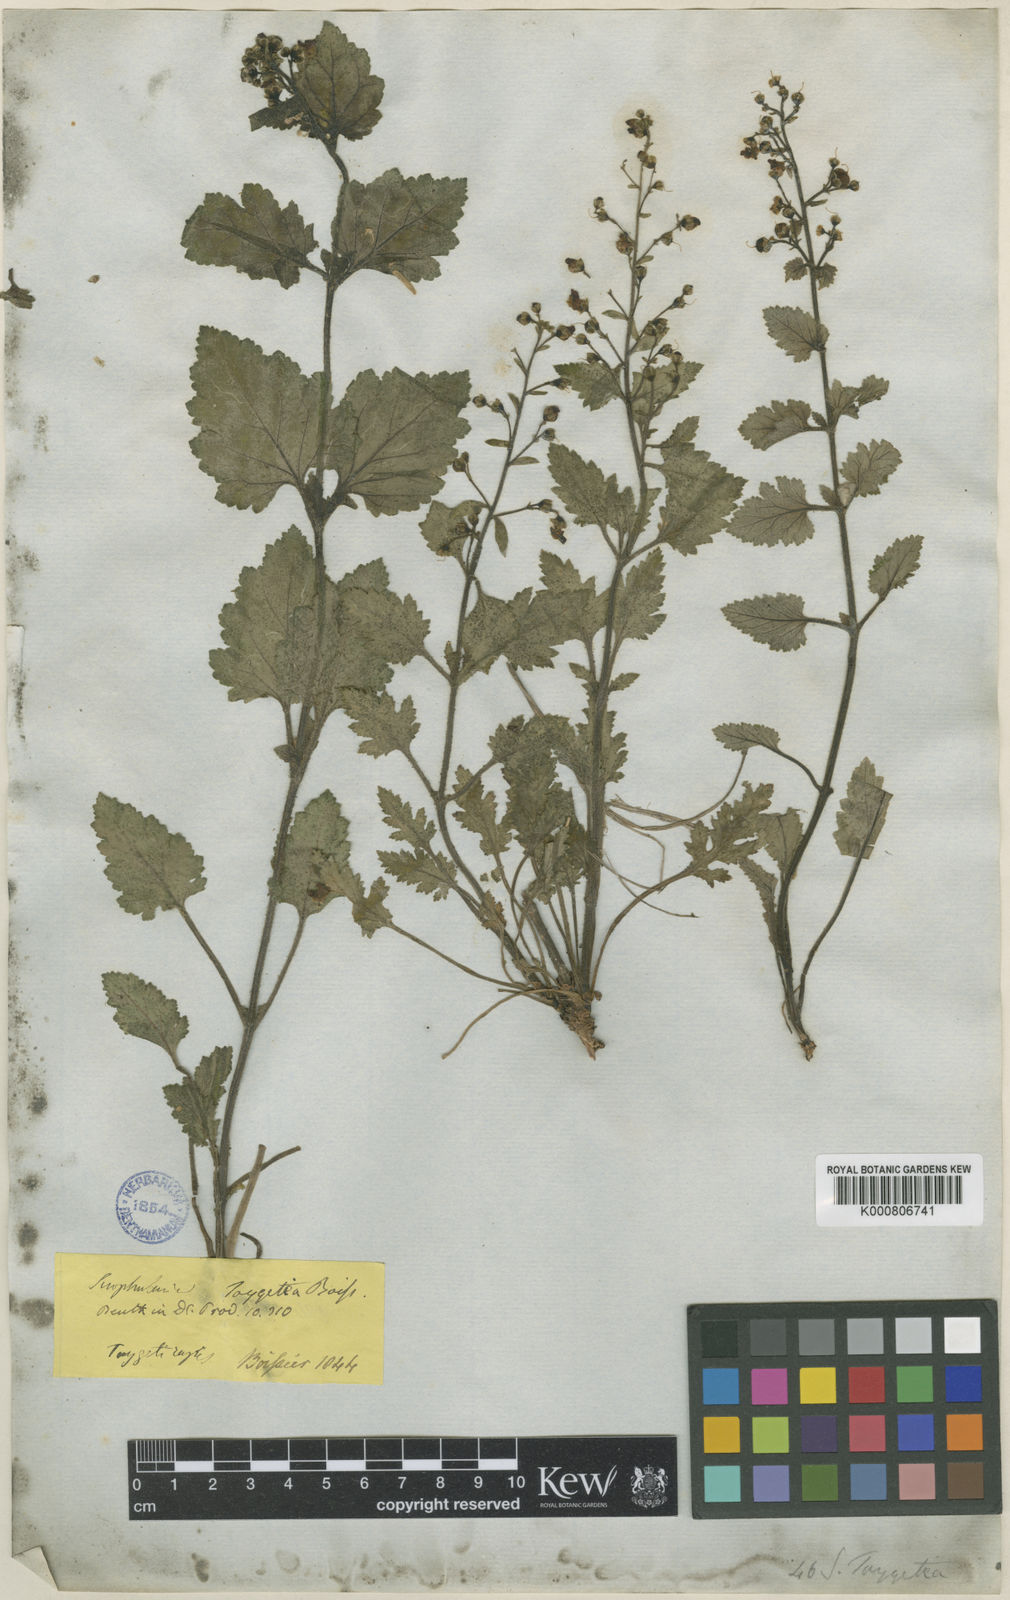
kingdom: Plantae
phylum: Tracheophyta
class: Magnoliopsida
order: Lamiales
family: Scrophulariaceae
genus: Scrophularia
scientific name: Scrophularia heterophylla
